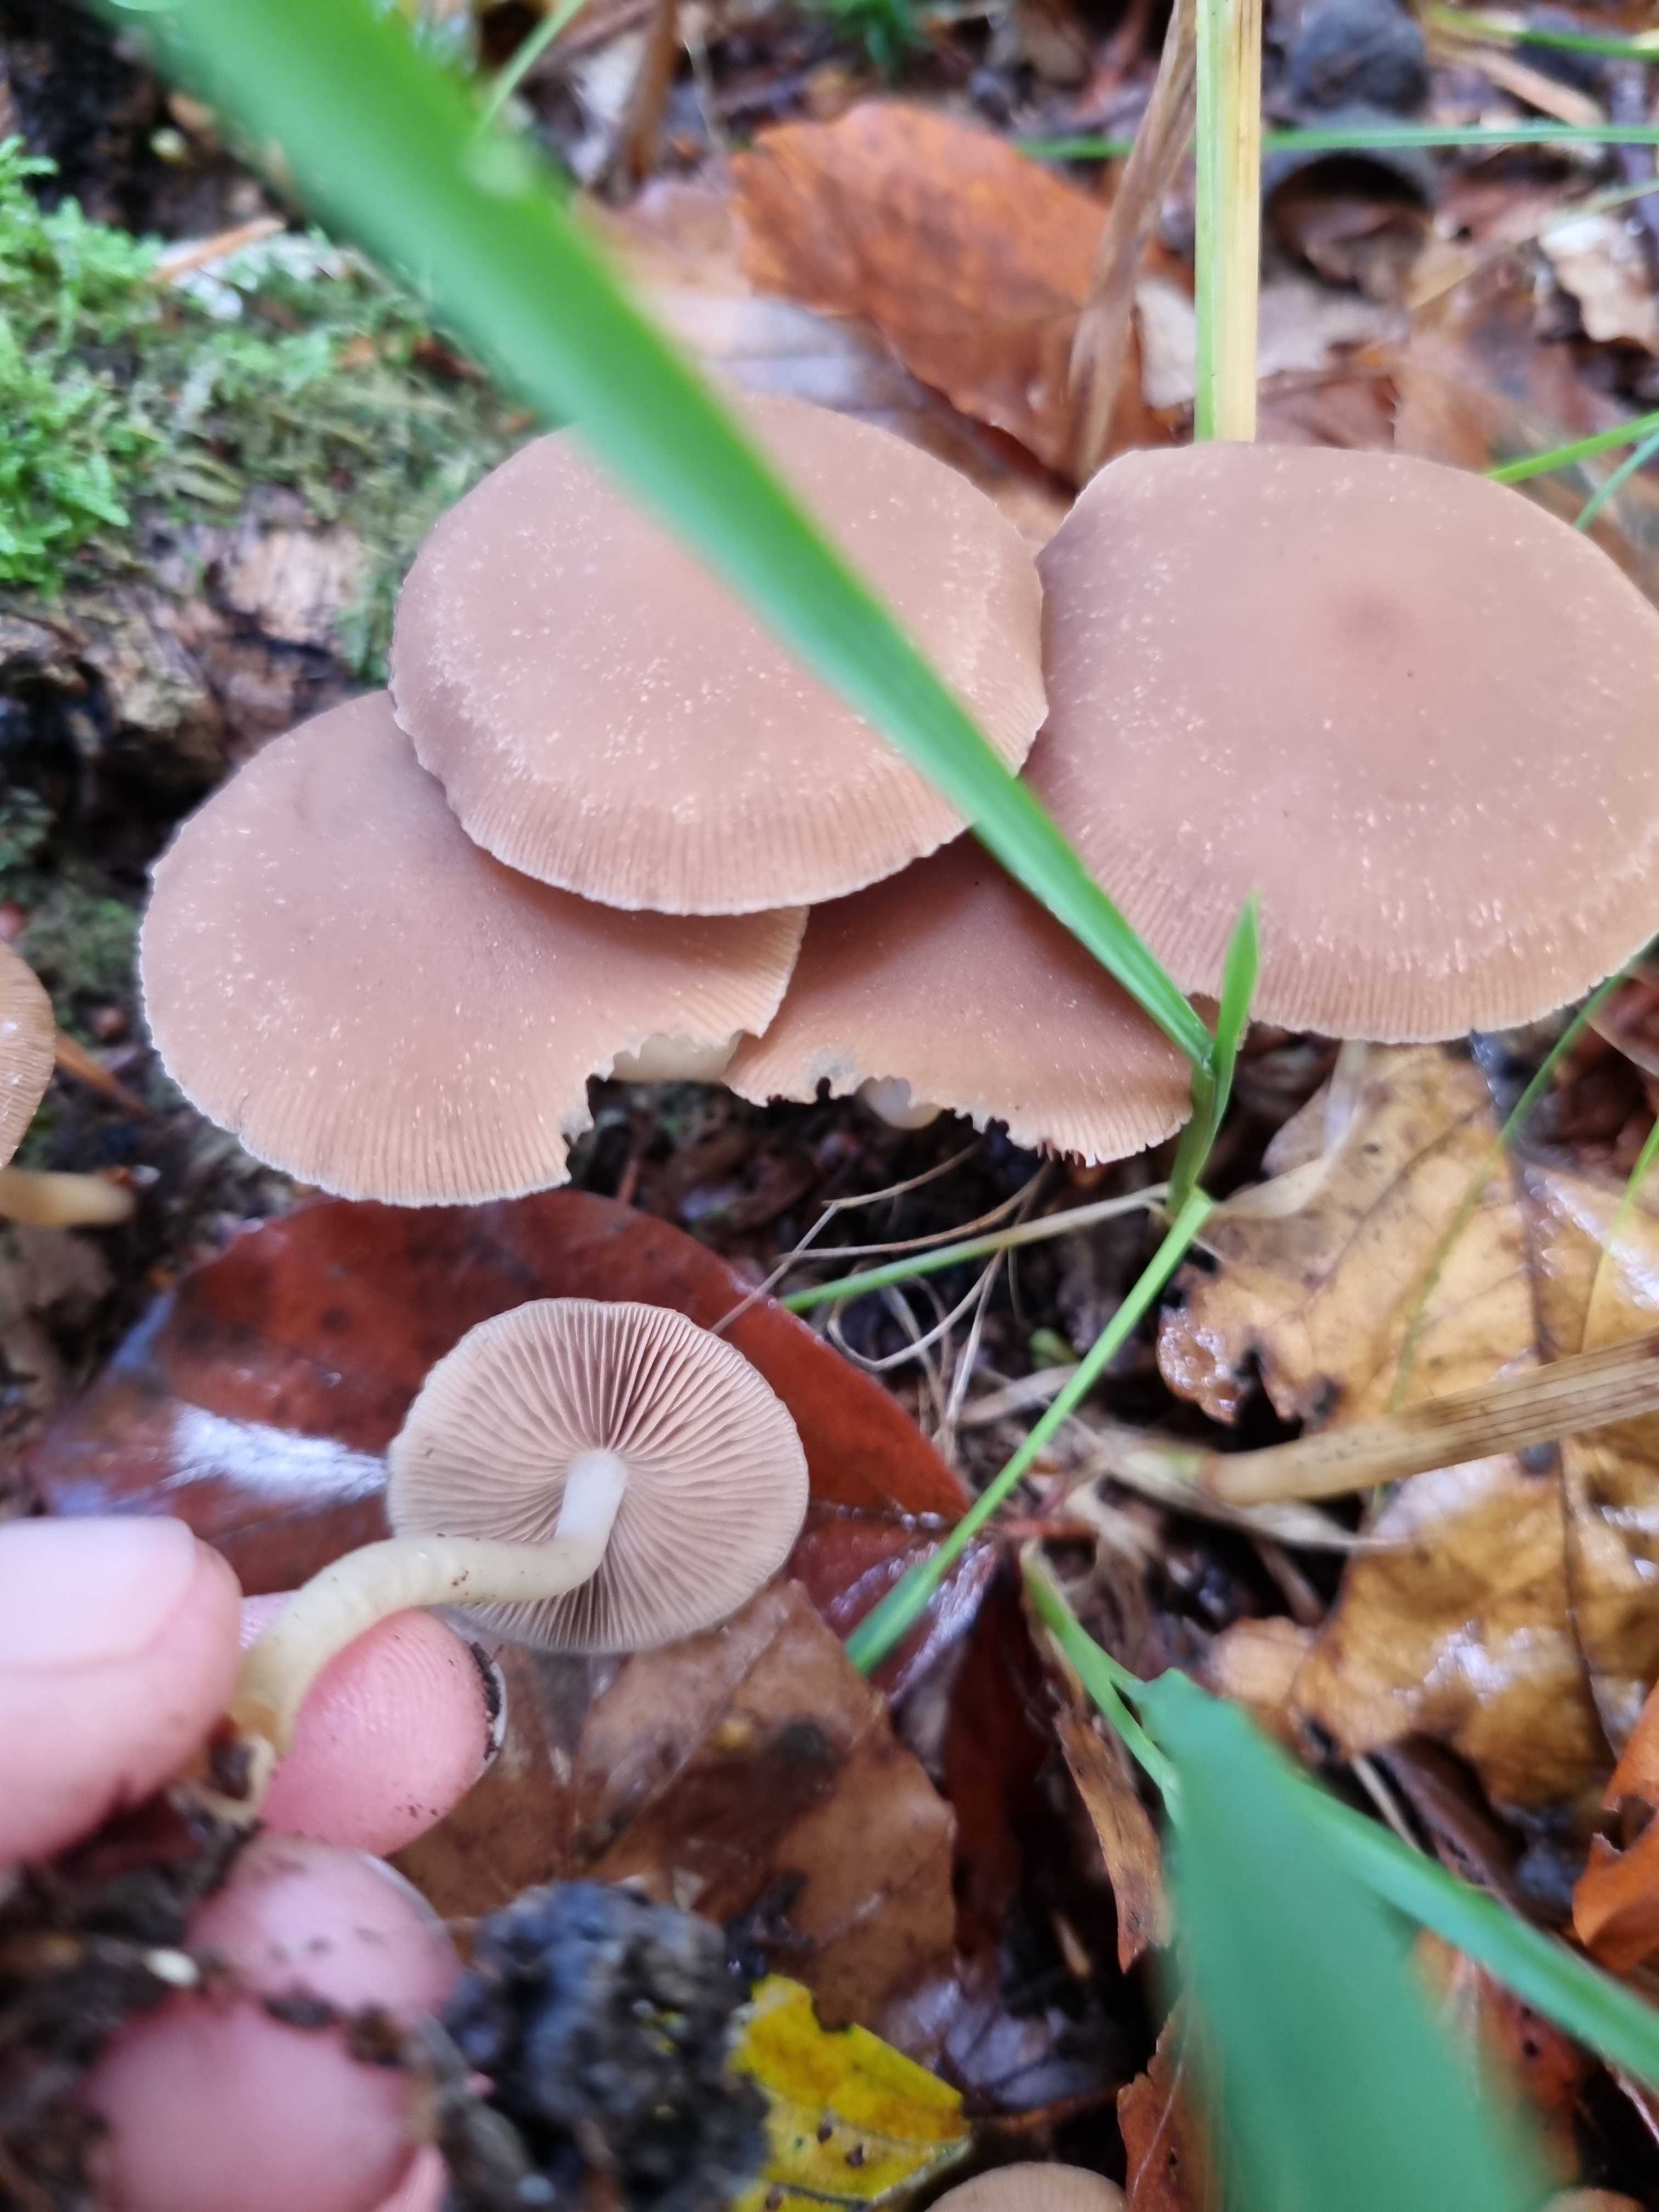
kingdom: Fungi
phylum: Basidiomycota
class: Agaricomycetes
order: Agaricales
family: Psathyrellaceae
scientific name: Psathyrellaceae
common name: mørkhatfamilien
